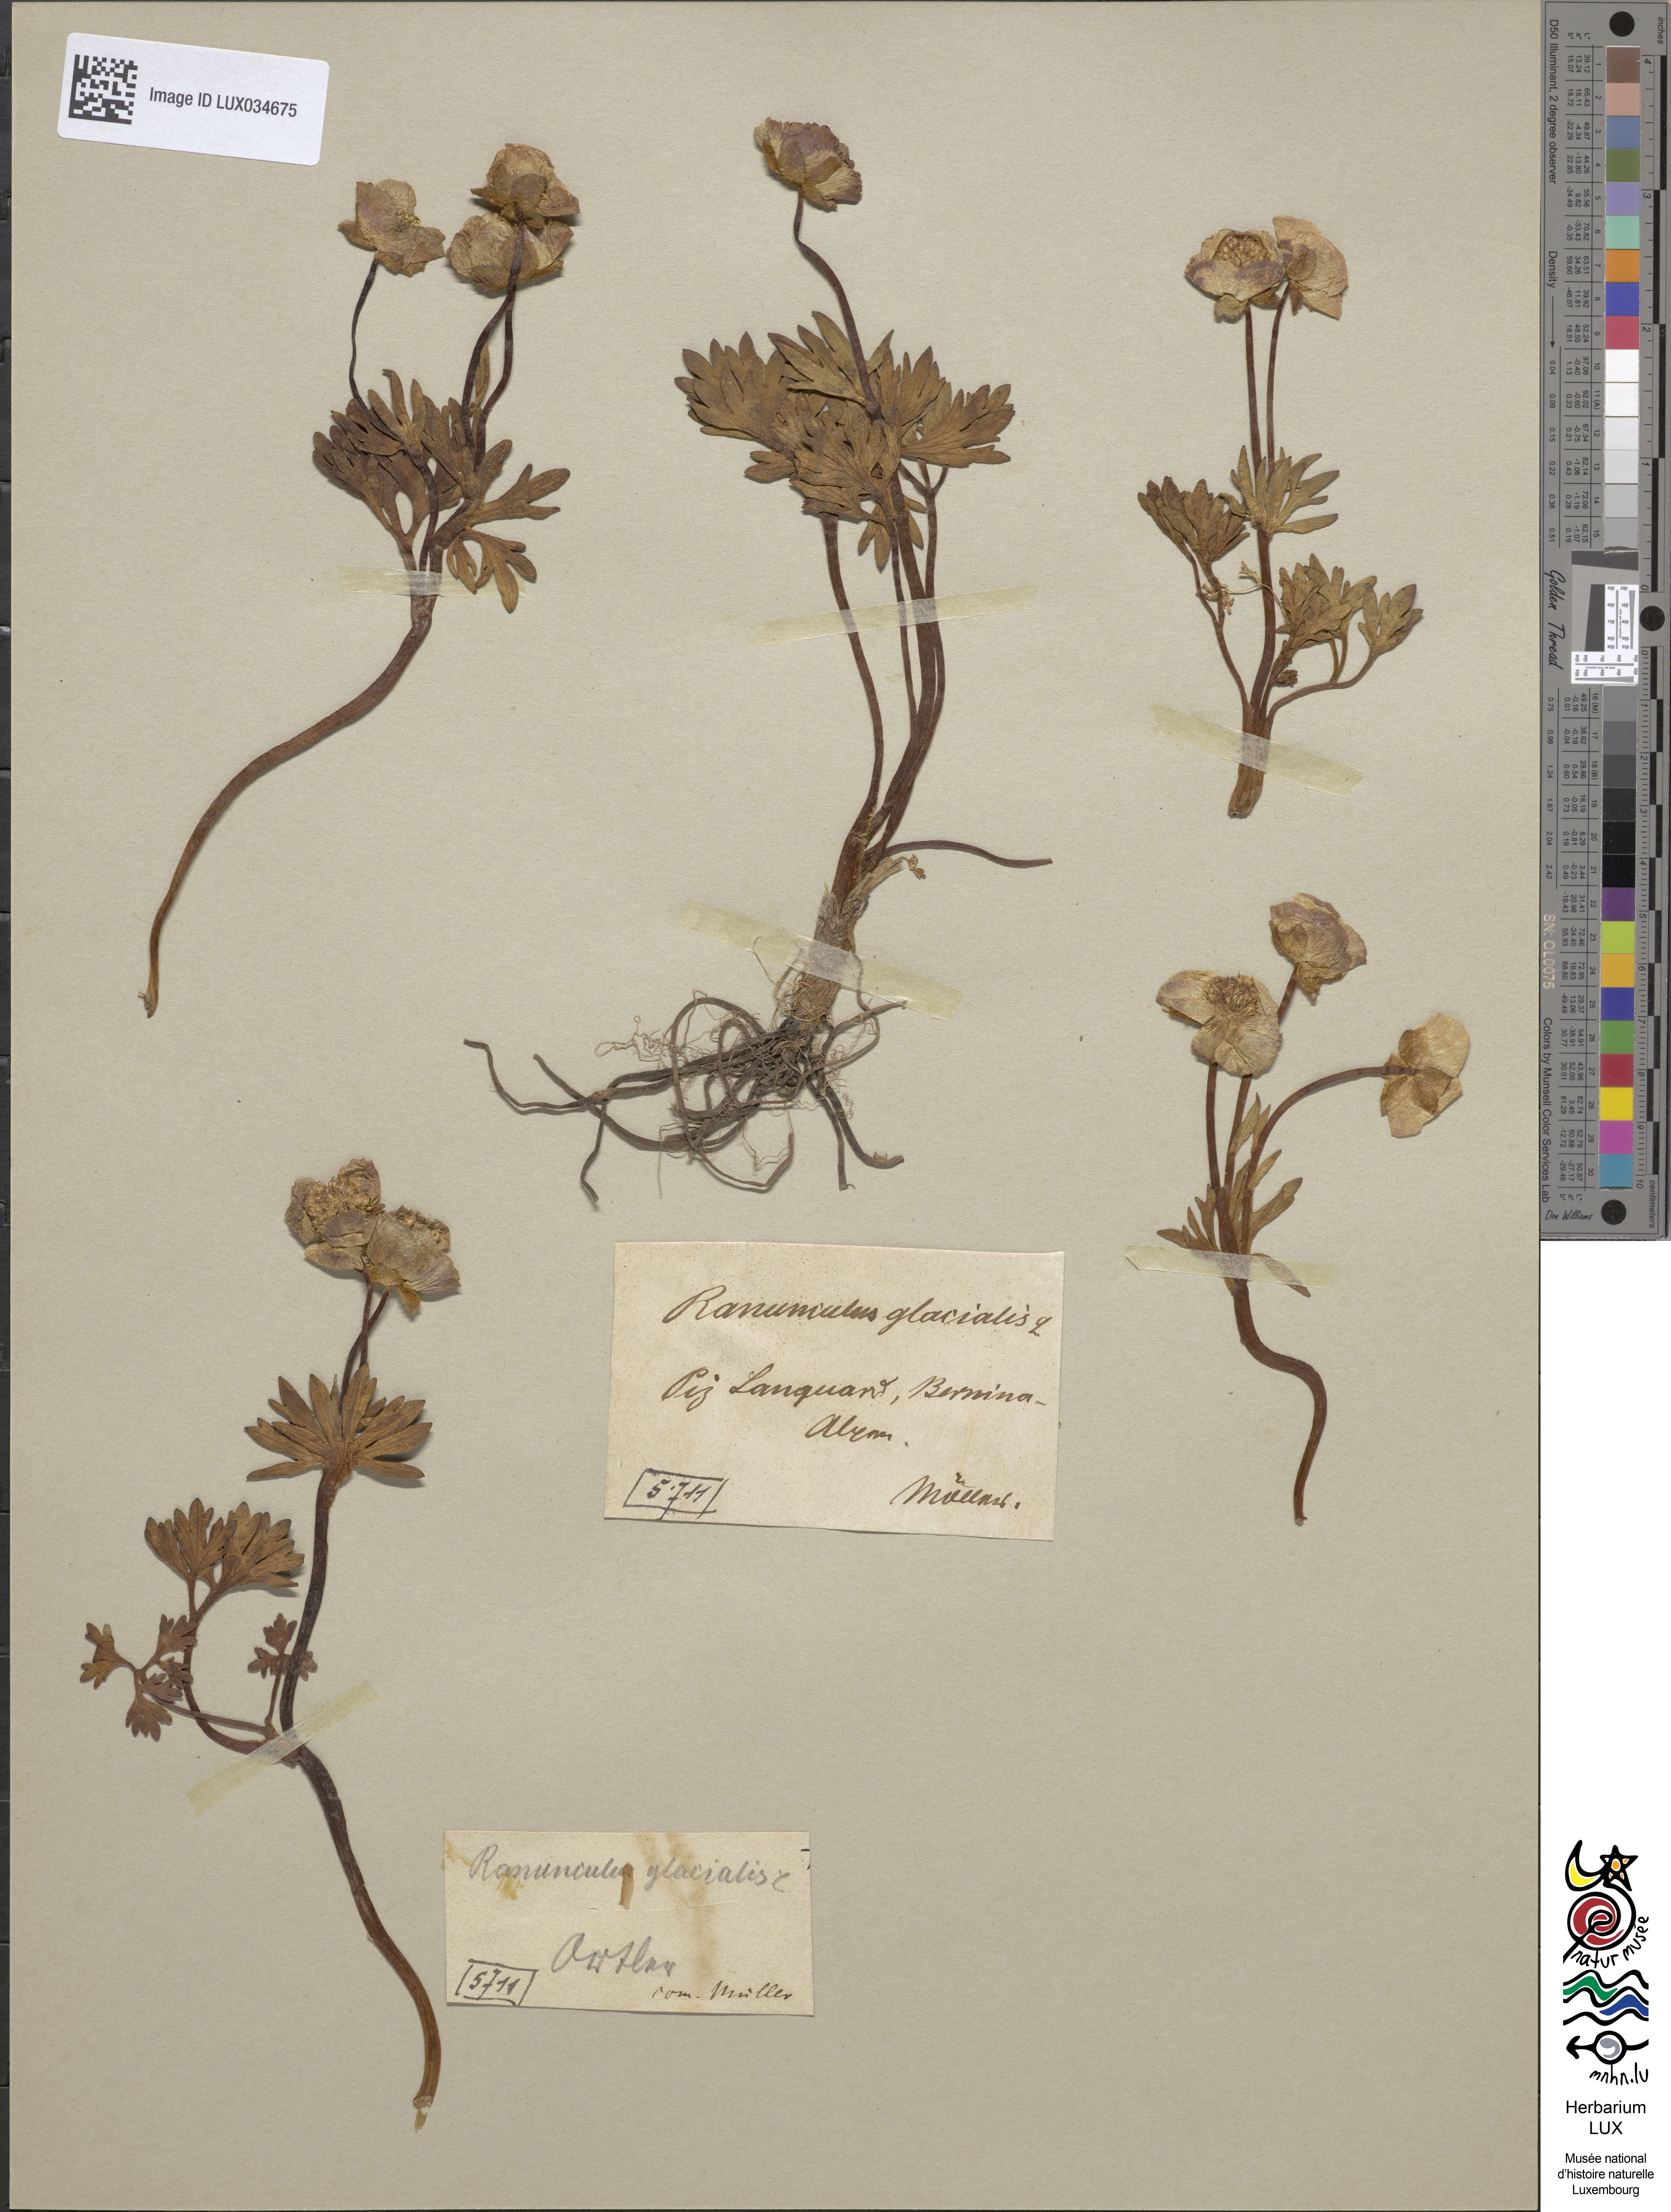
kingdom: Plantae
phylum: Tracheophyta
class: Magnoliopsida
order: Ranunculales
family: Ranunculaceae
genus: Ranunculus
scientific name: Ranunculus glacialis
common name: Glacier buttercup
